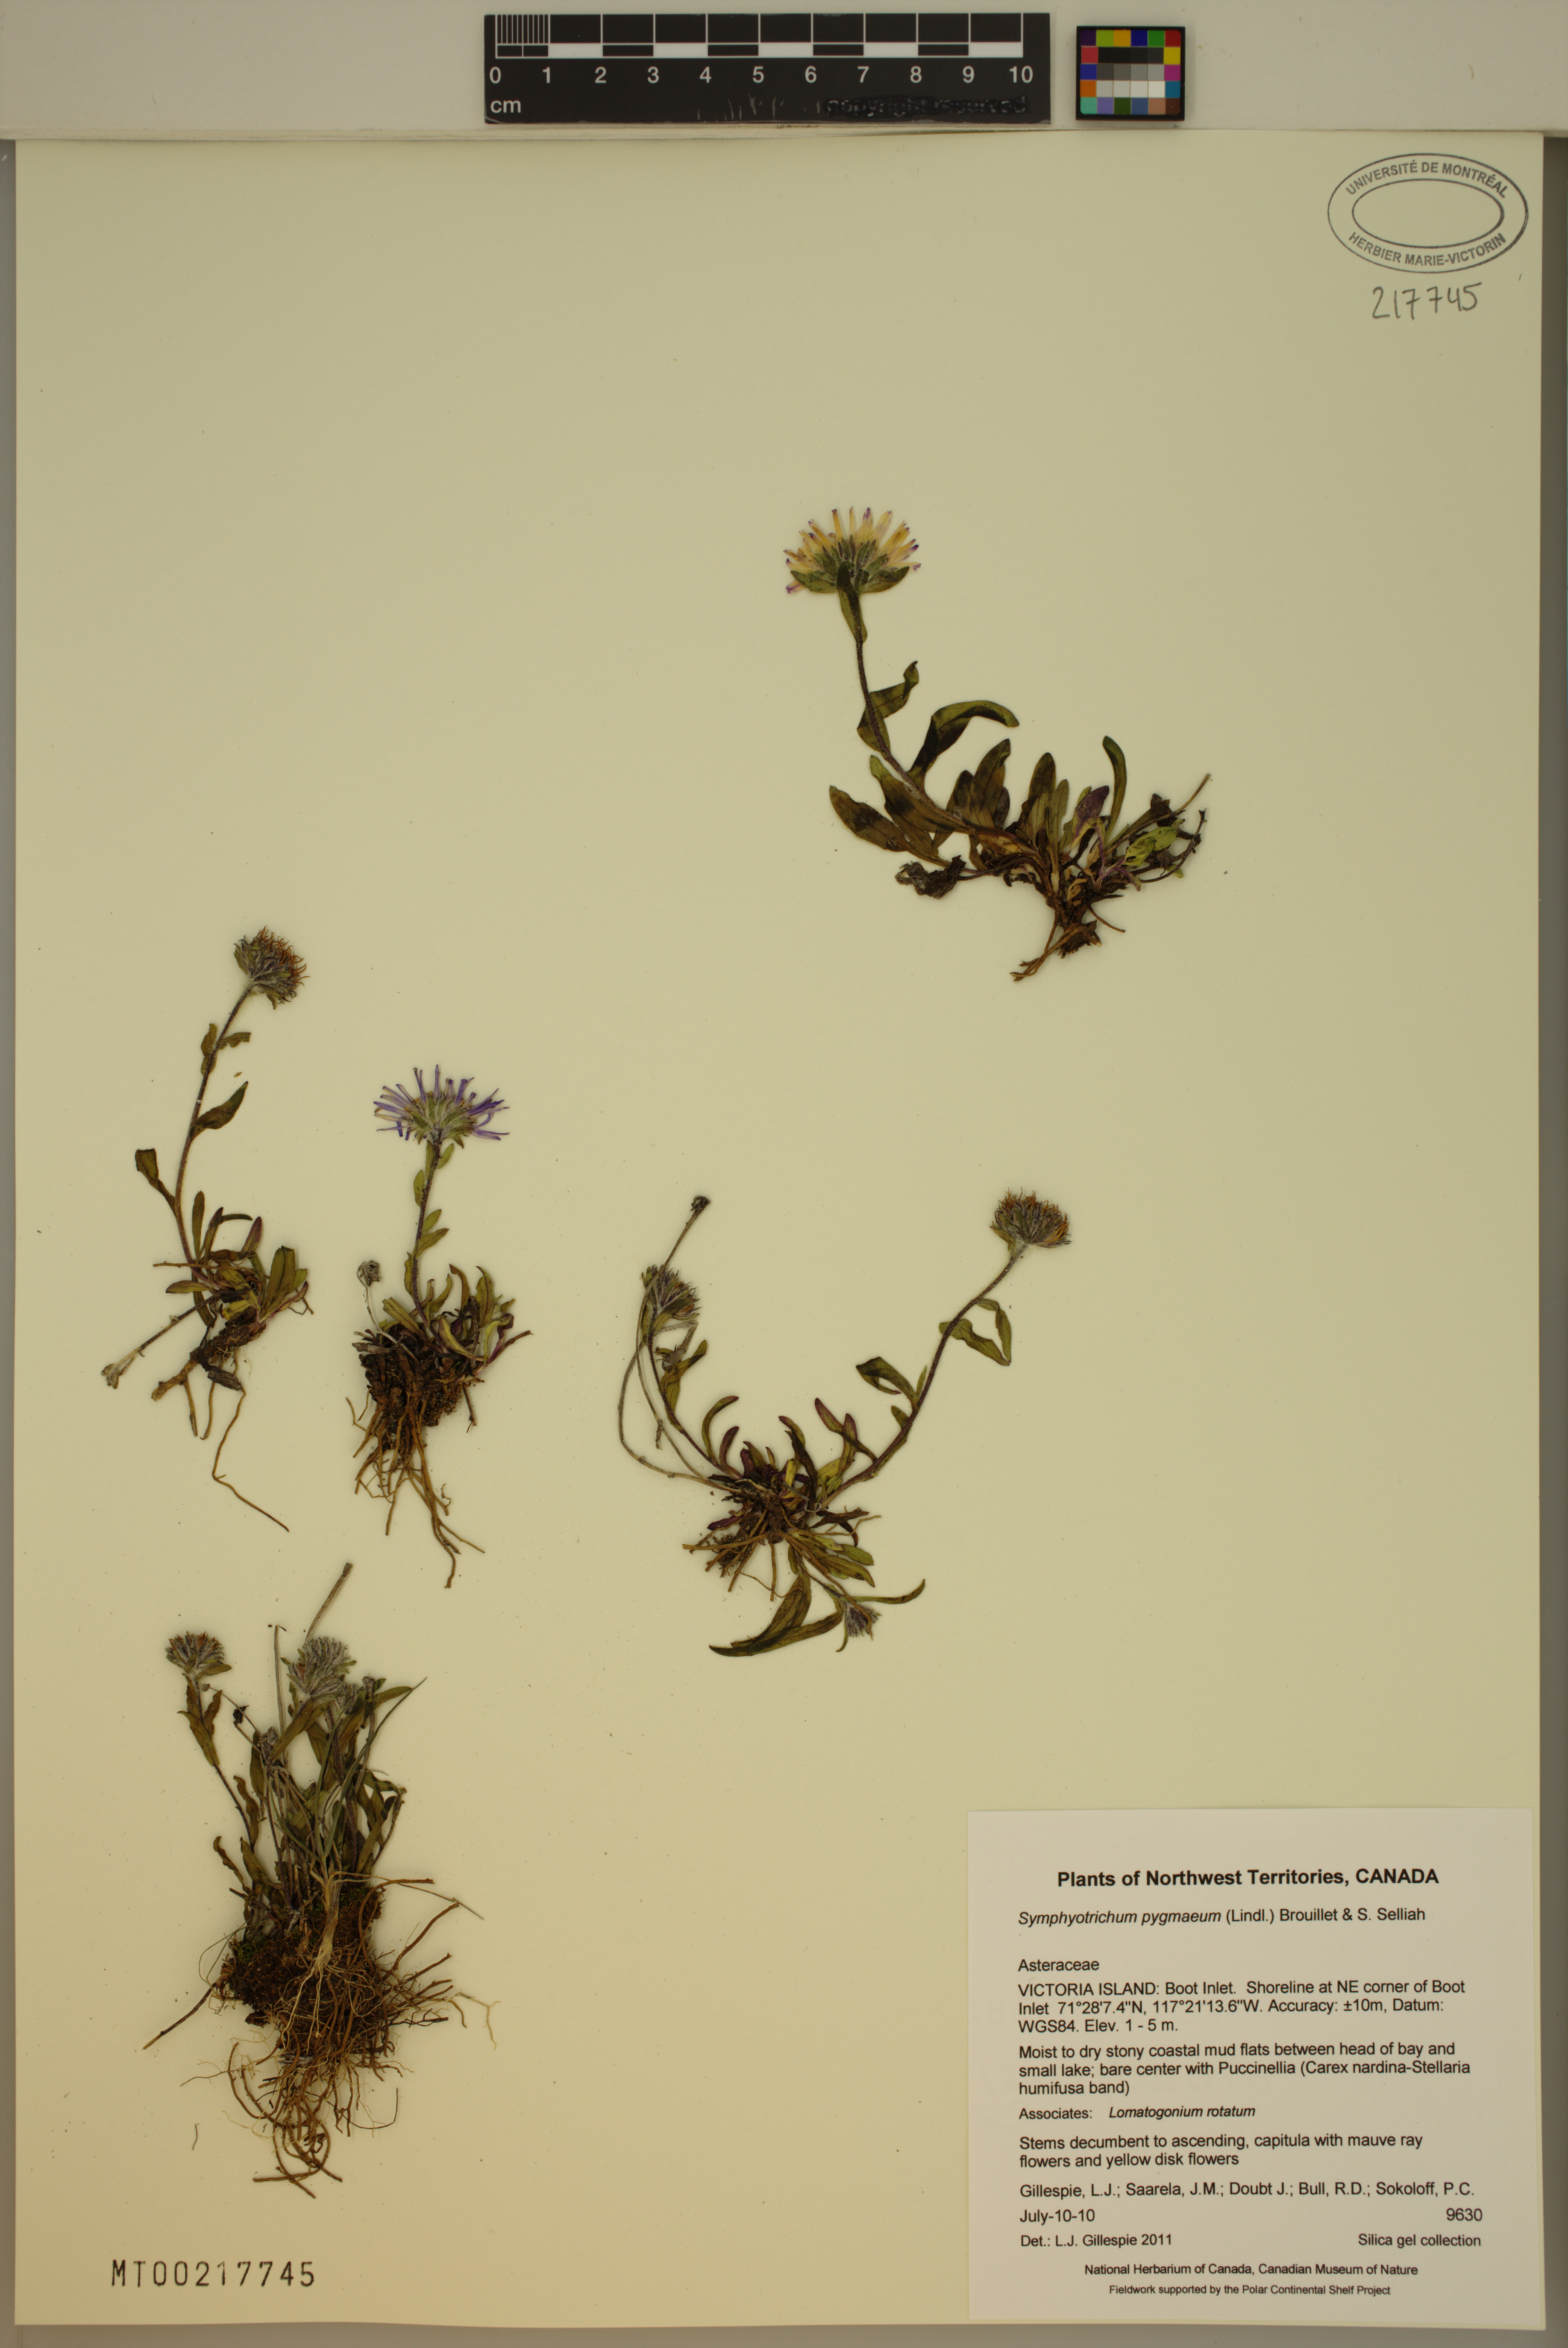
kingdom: Plantae
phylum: Tracheophyta
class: Magnoliopsida
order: Asterales
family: Asteraceae
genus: Symphyotrichum
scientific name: Symphyotrichum pygmaeum
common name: Pygmy aster
